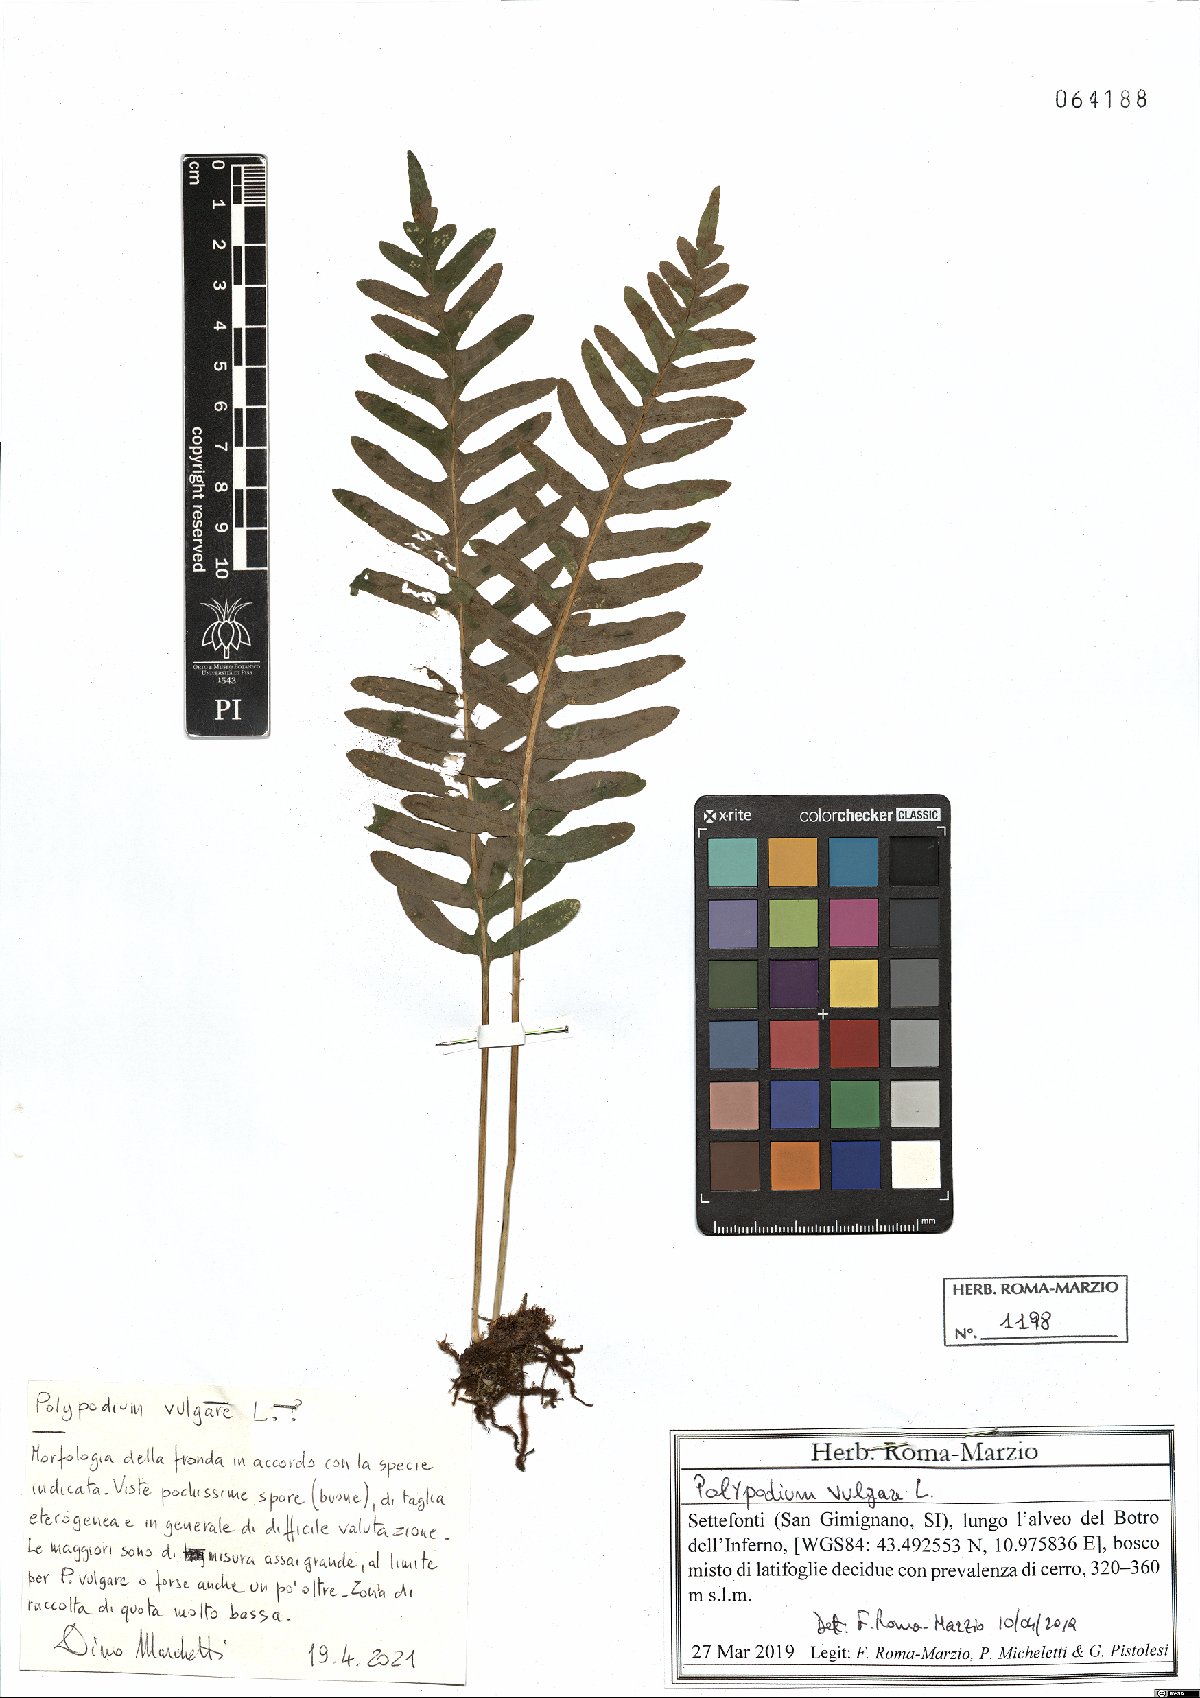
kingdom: Plantae
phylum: Tracheophyta
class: Polypodiopsida
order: Polypodiales
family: Polypodiaceae
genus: Polypodium
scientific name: Polypodium vulgare
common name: Common polypody
